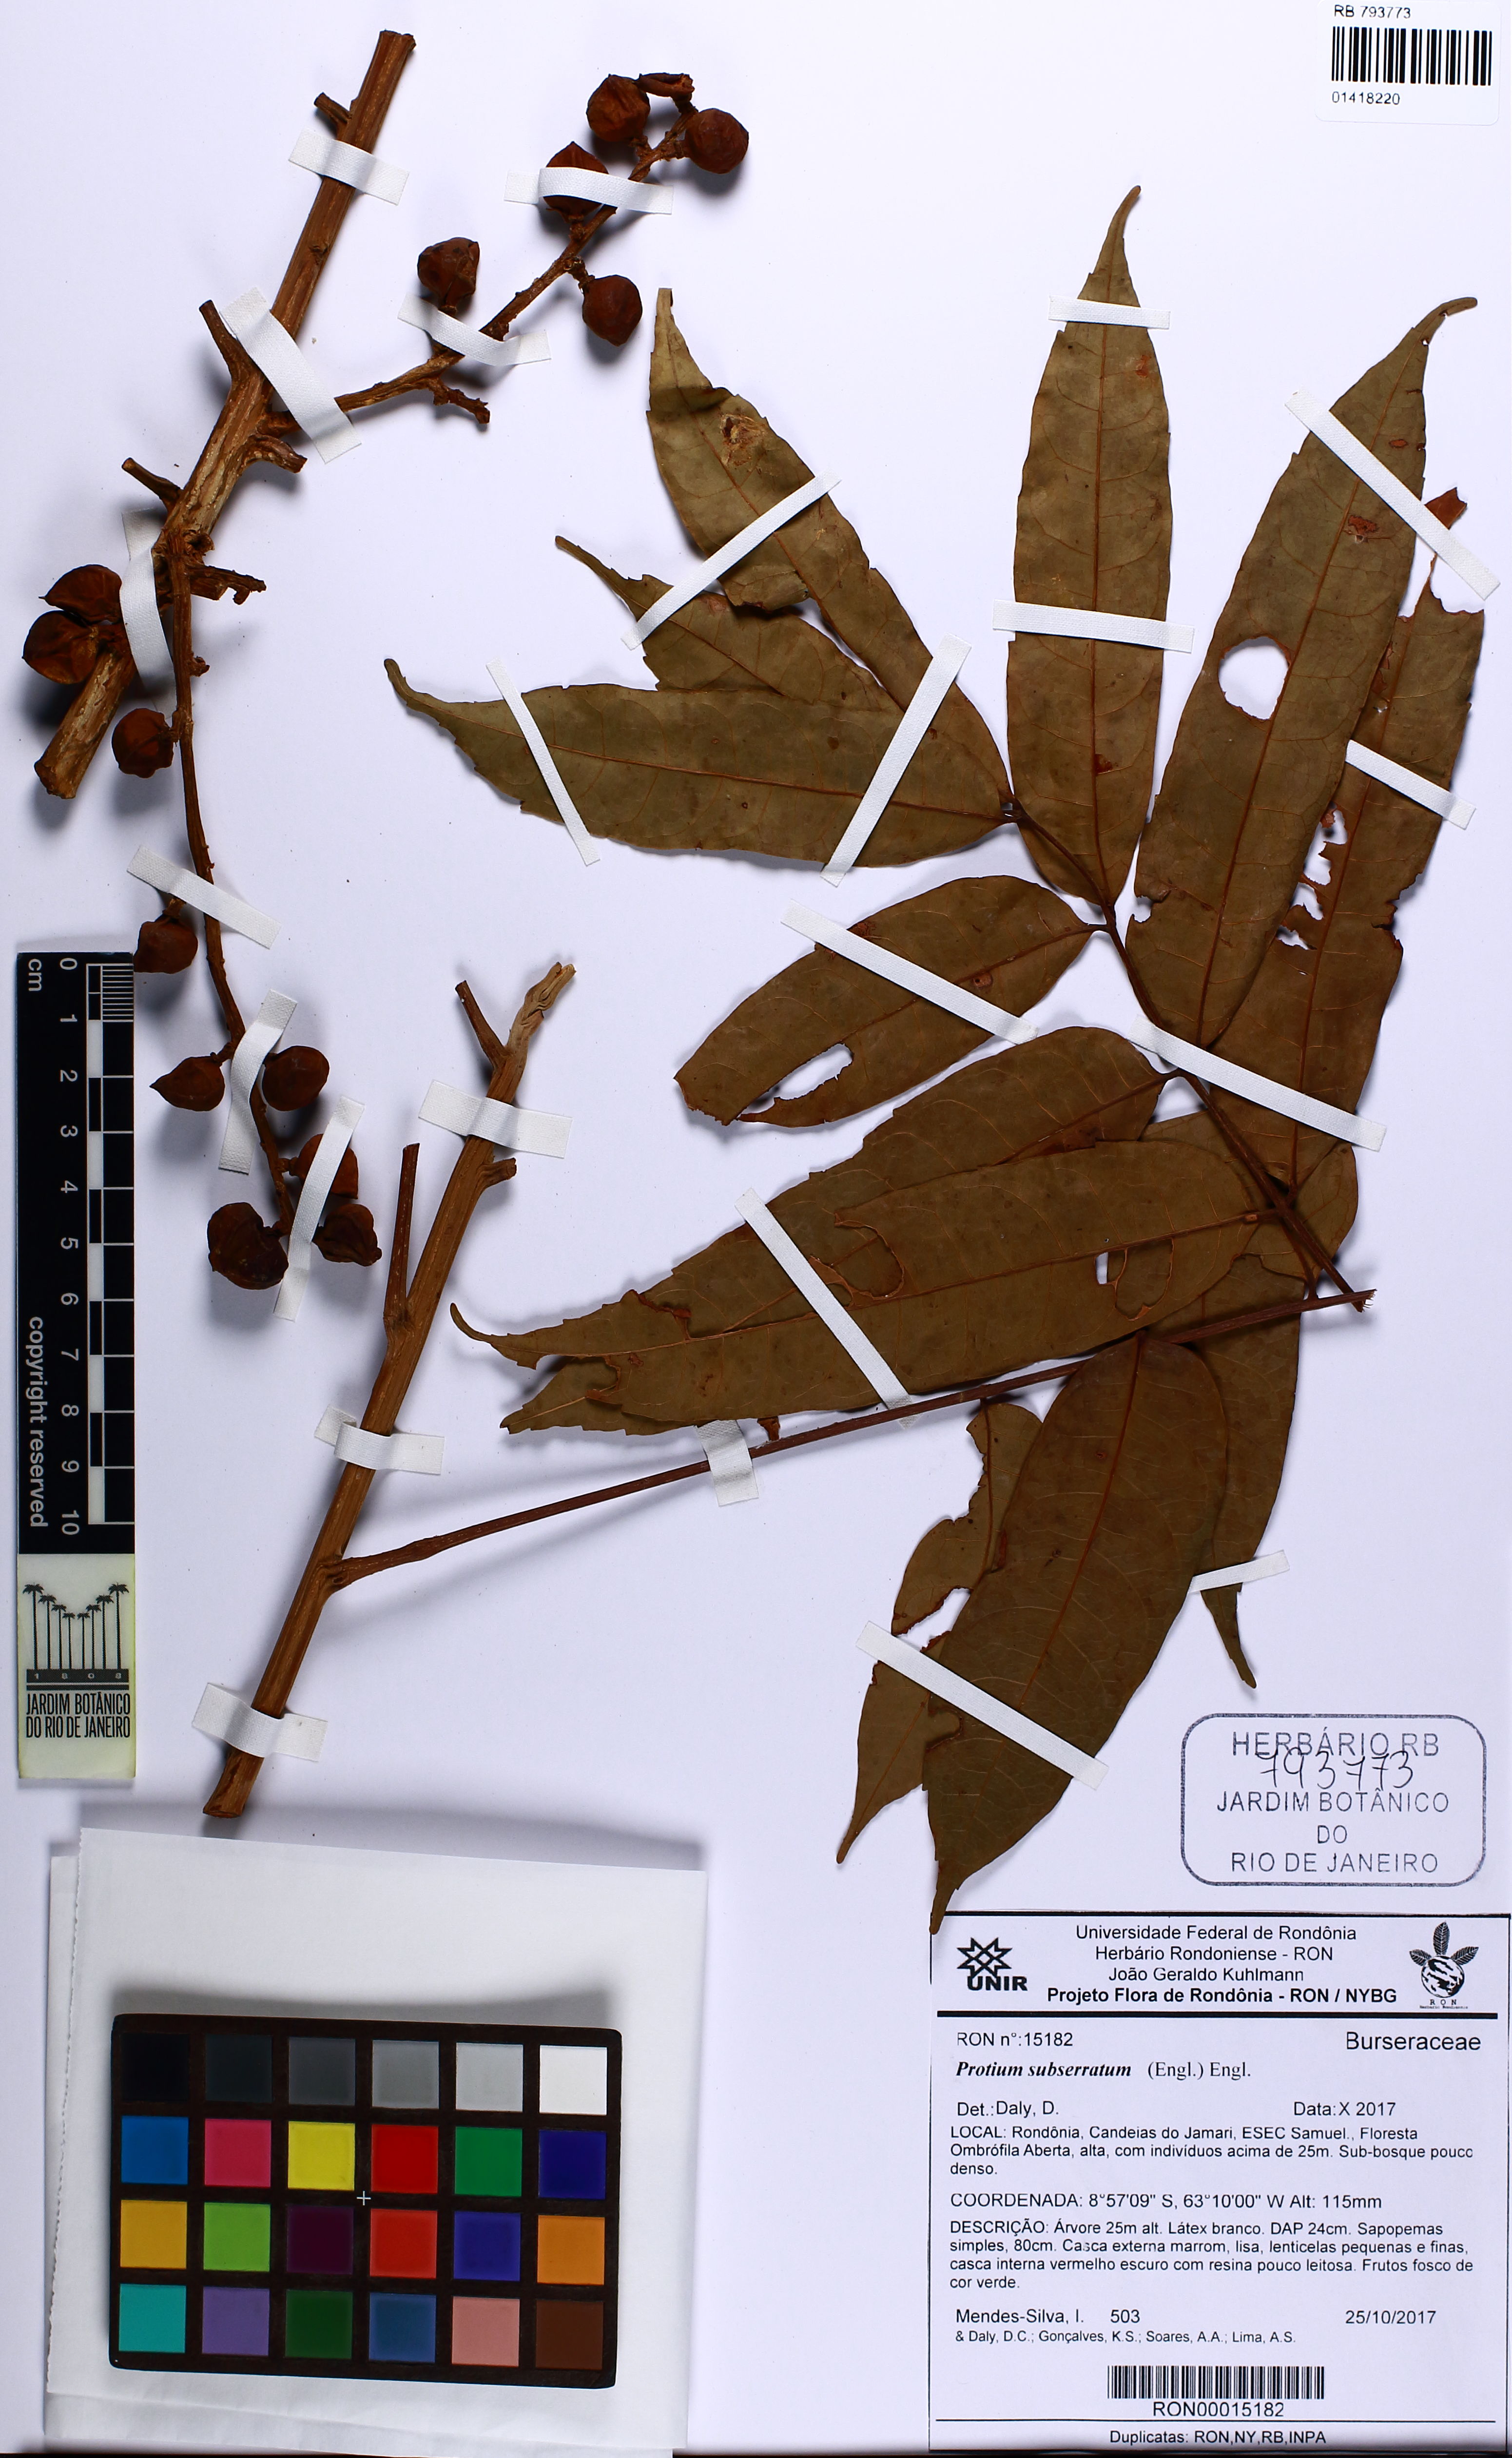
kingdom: Plantae
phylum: Tracheophyta
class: Magnoliopsida
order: Sapindales
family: Burseraceae
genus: Protium
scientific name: Protium subserratum
